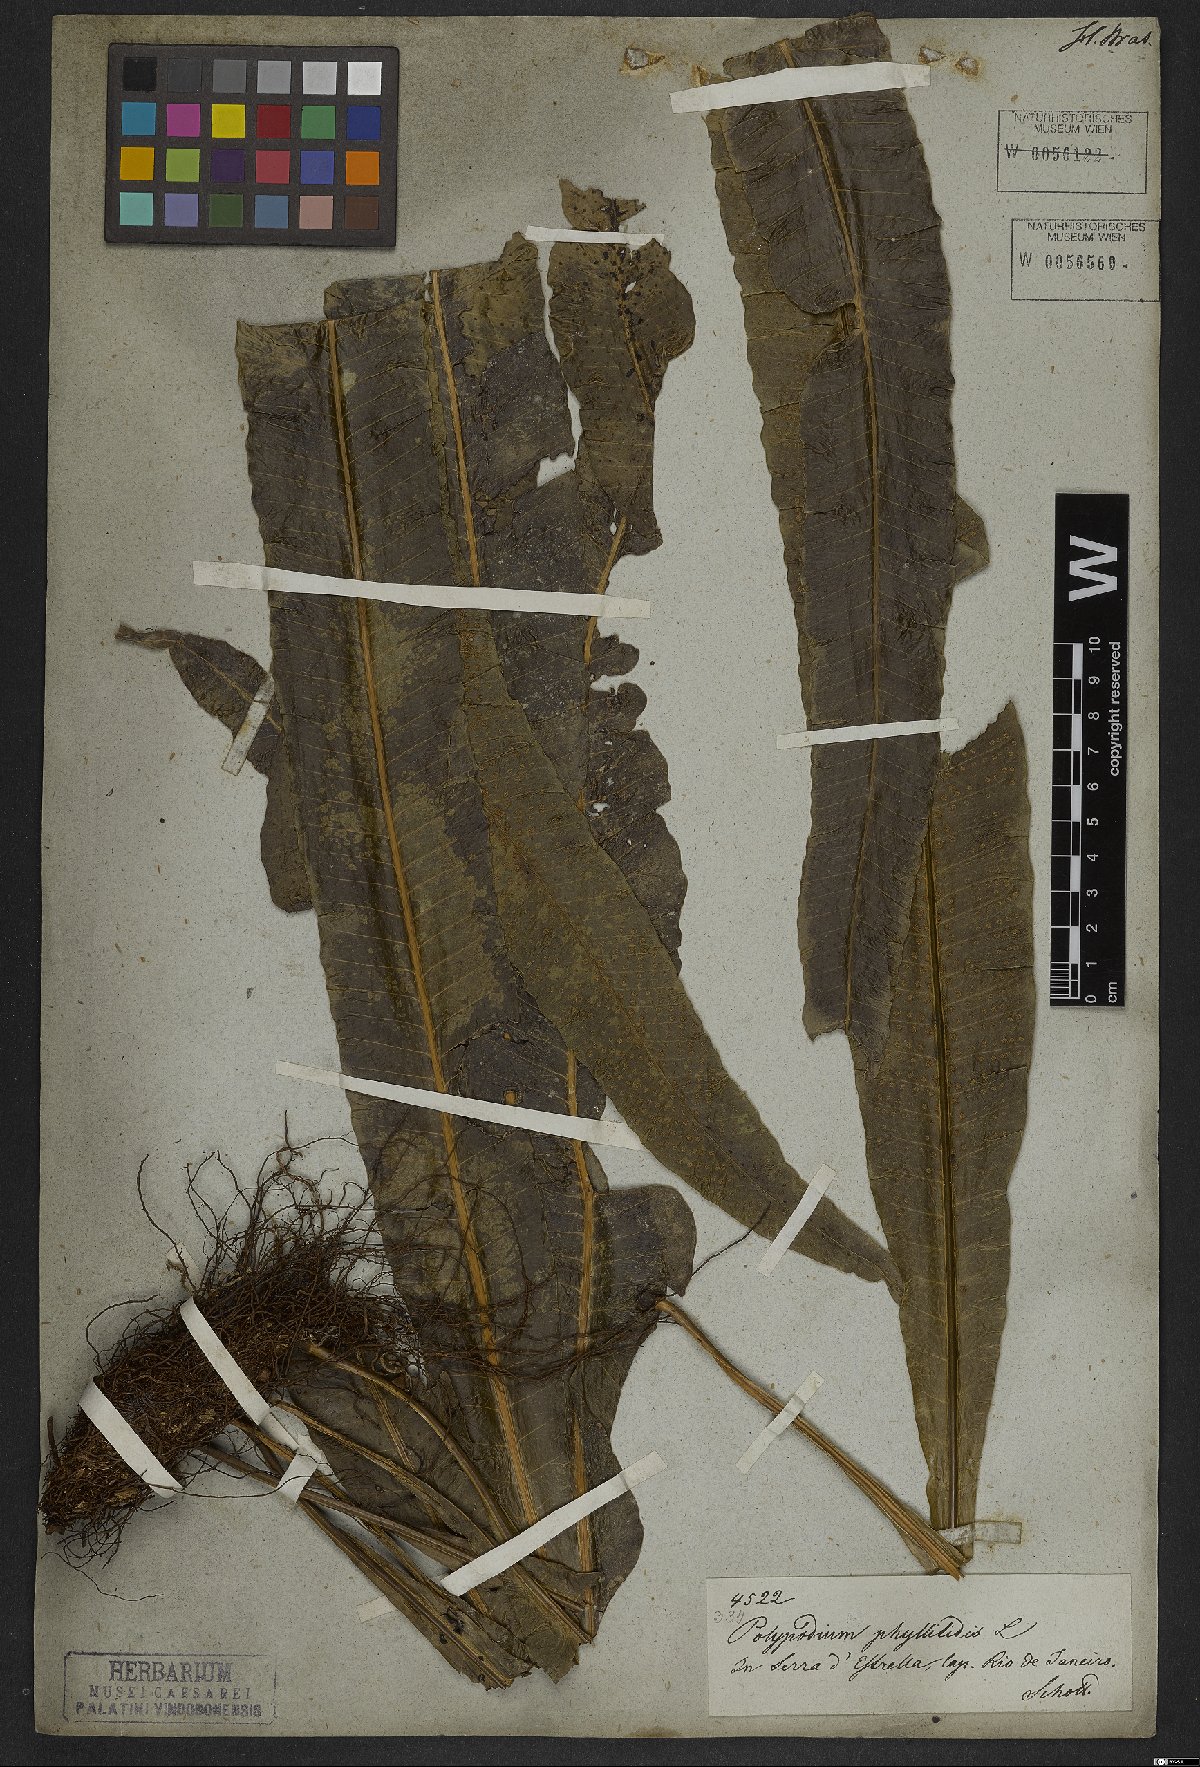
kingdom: Plantae
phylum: Tracheophyta
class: Polypodiopsida
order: Polypodiales
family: Polypodiaceae
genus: Campyloneurum
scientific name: Campyloneurum phyllitidis
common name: Cow-tongue fern
